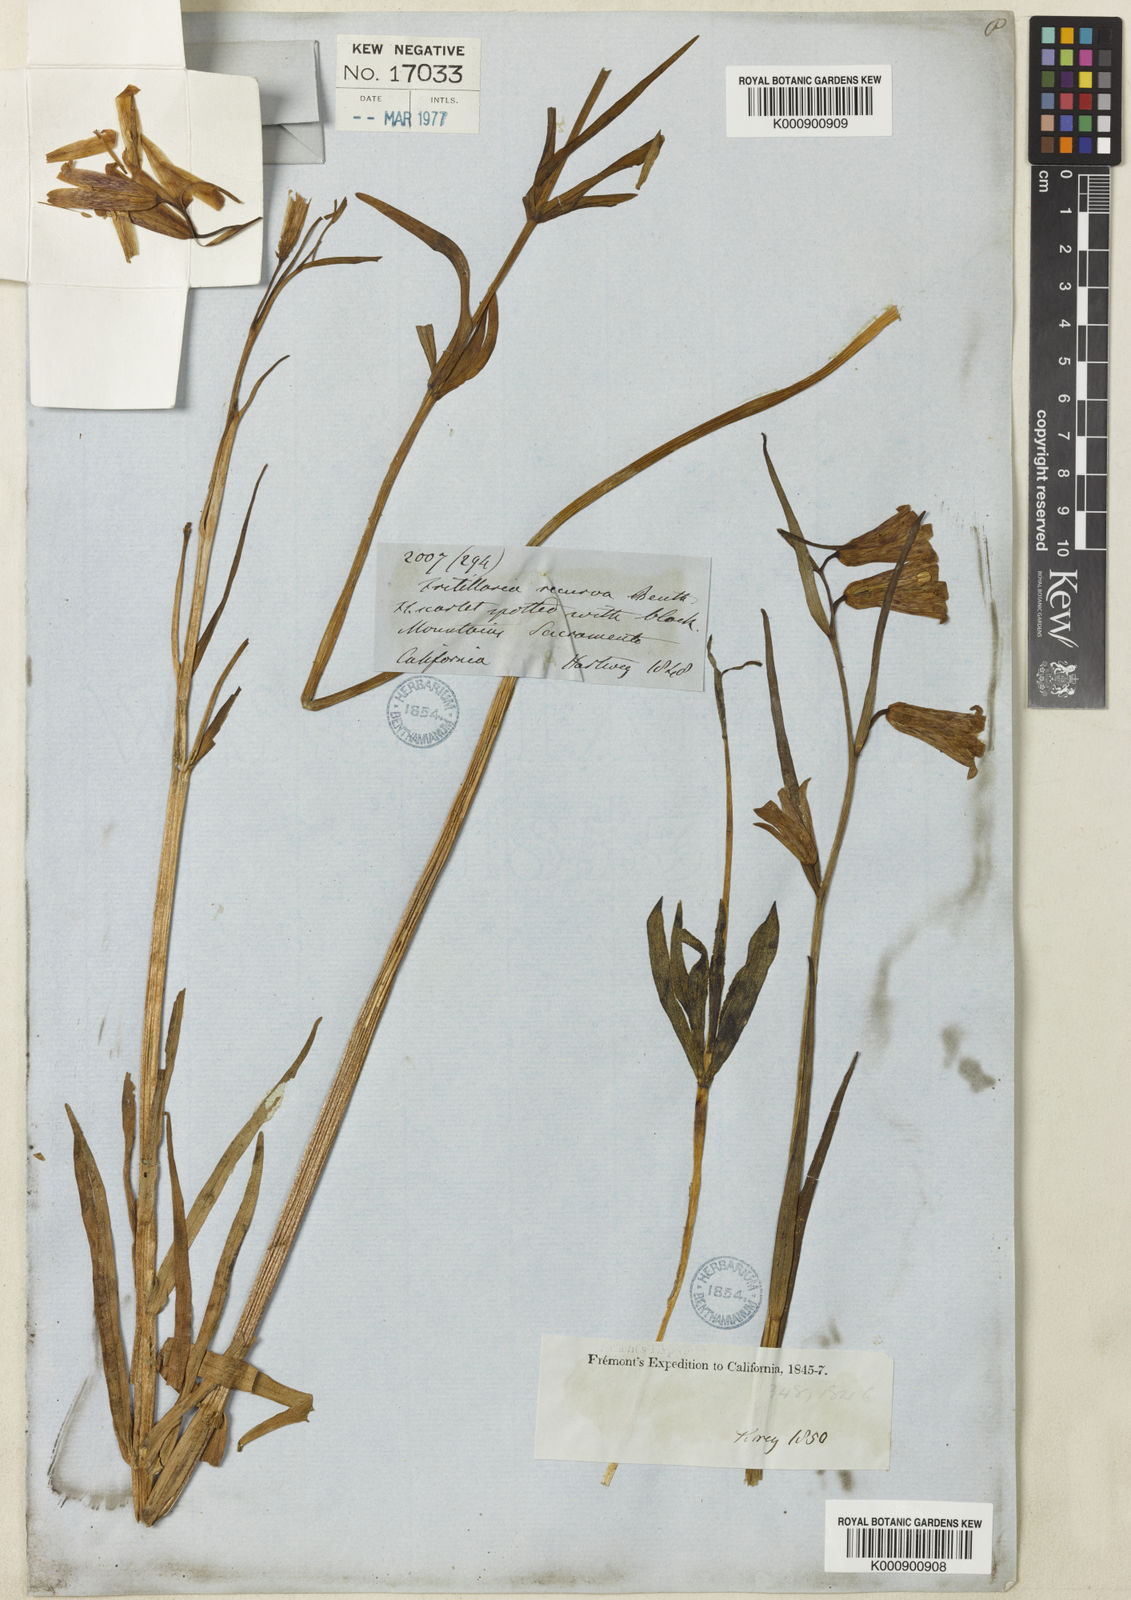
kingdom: Plantae
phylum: Tracheophyta
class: Liliopsida
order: Liliales
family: Liliaceae
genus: Fritillaria
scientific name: Fritillaria recurva
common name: Scarlet fritillary
